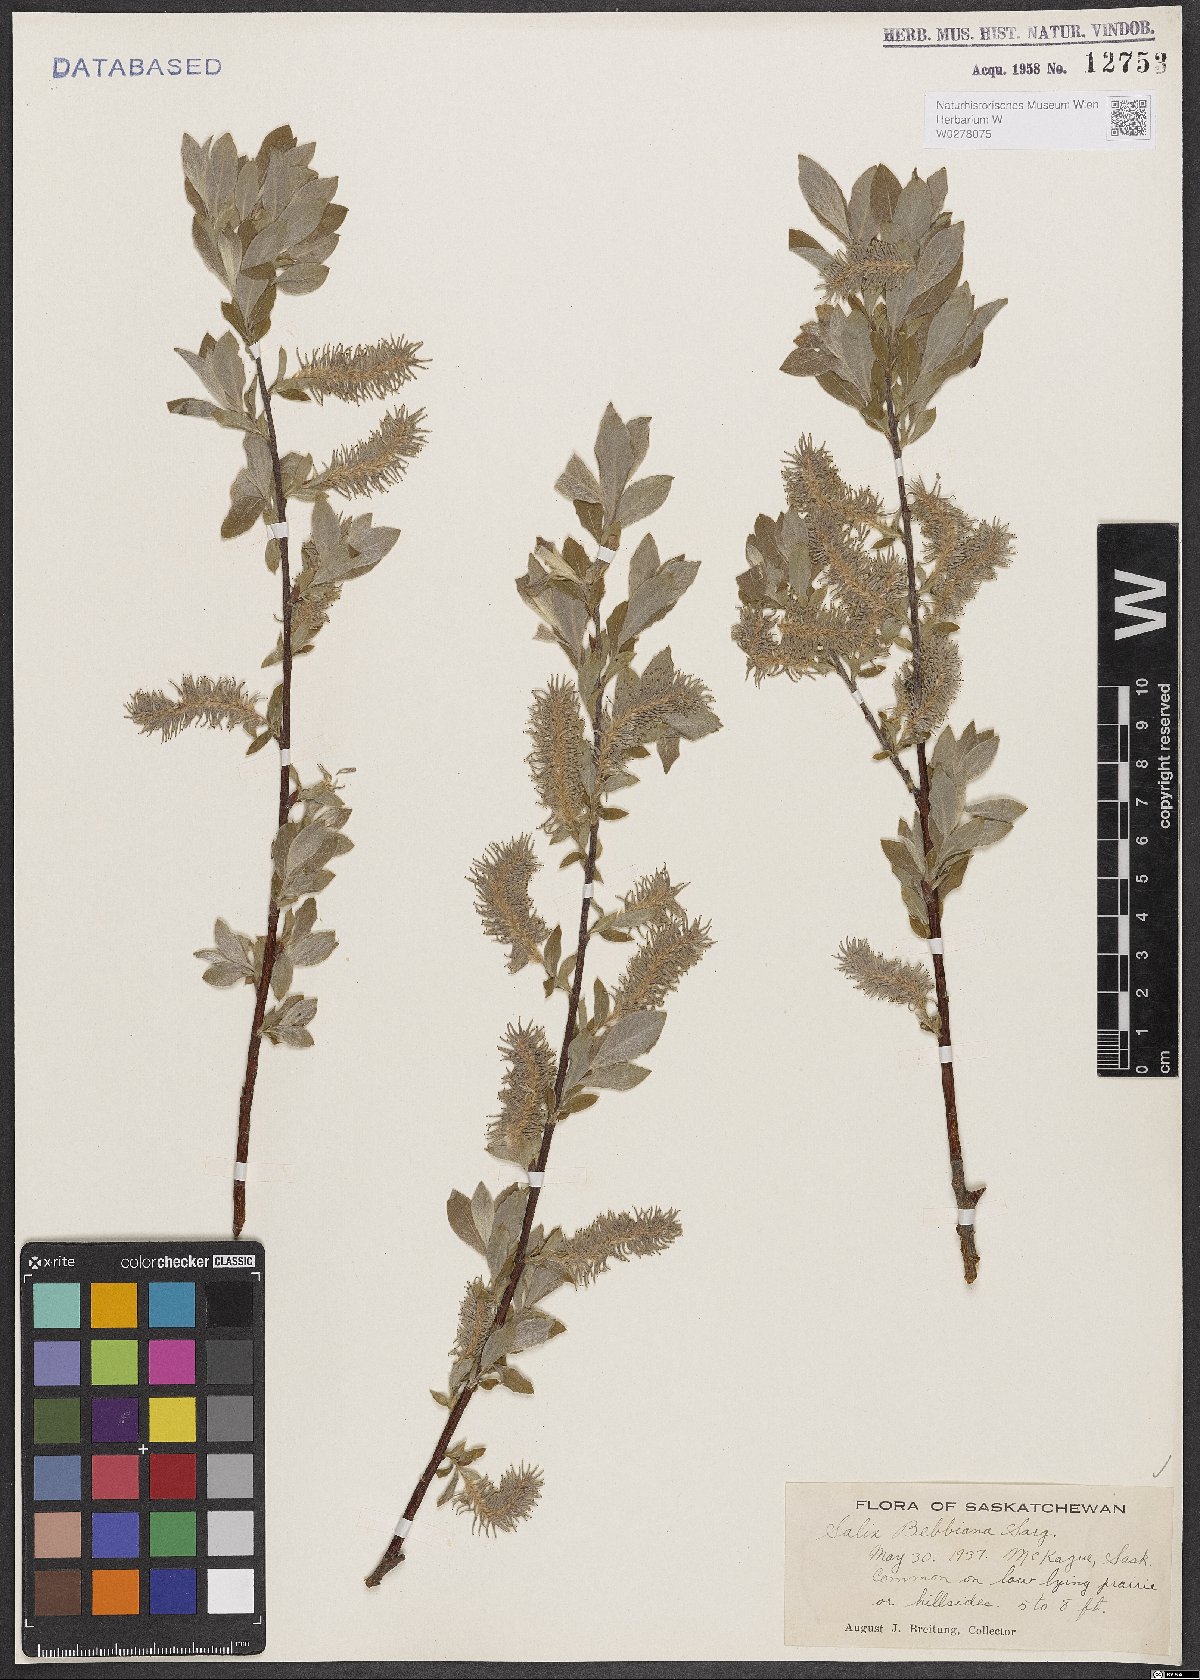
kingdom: Plantae
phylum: Tracheophyta
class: Magnoliopsida
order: Malpighiales
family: Salicaceae
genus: Salix
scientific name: Salix bebbiana
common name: Bebb's willow
